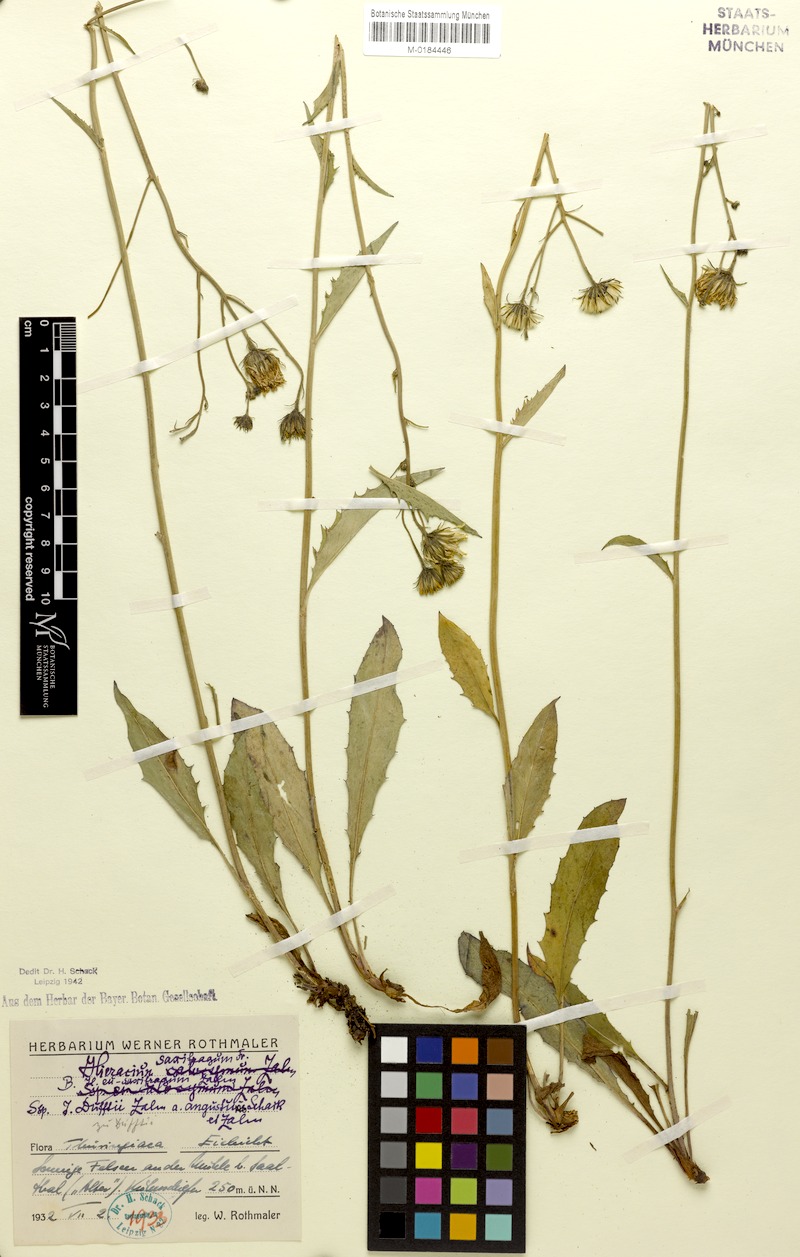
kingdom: Plantae
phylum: Tracheophyta
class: Magnoliopsida
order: Asterales
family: Asteraceae
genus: Hieracium
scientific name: Hieracium saxifragum
